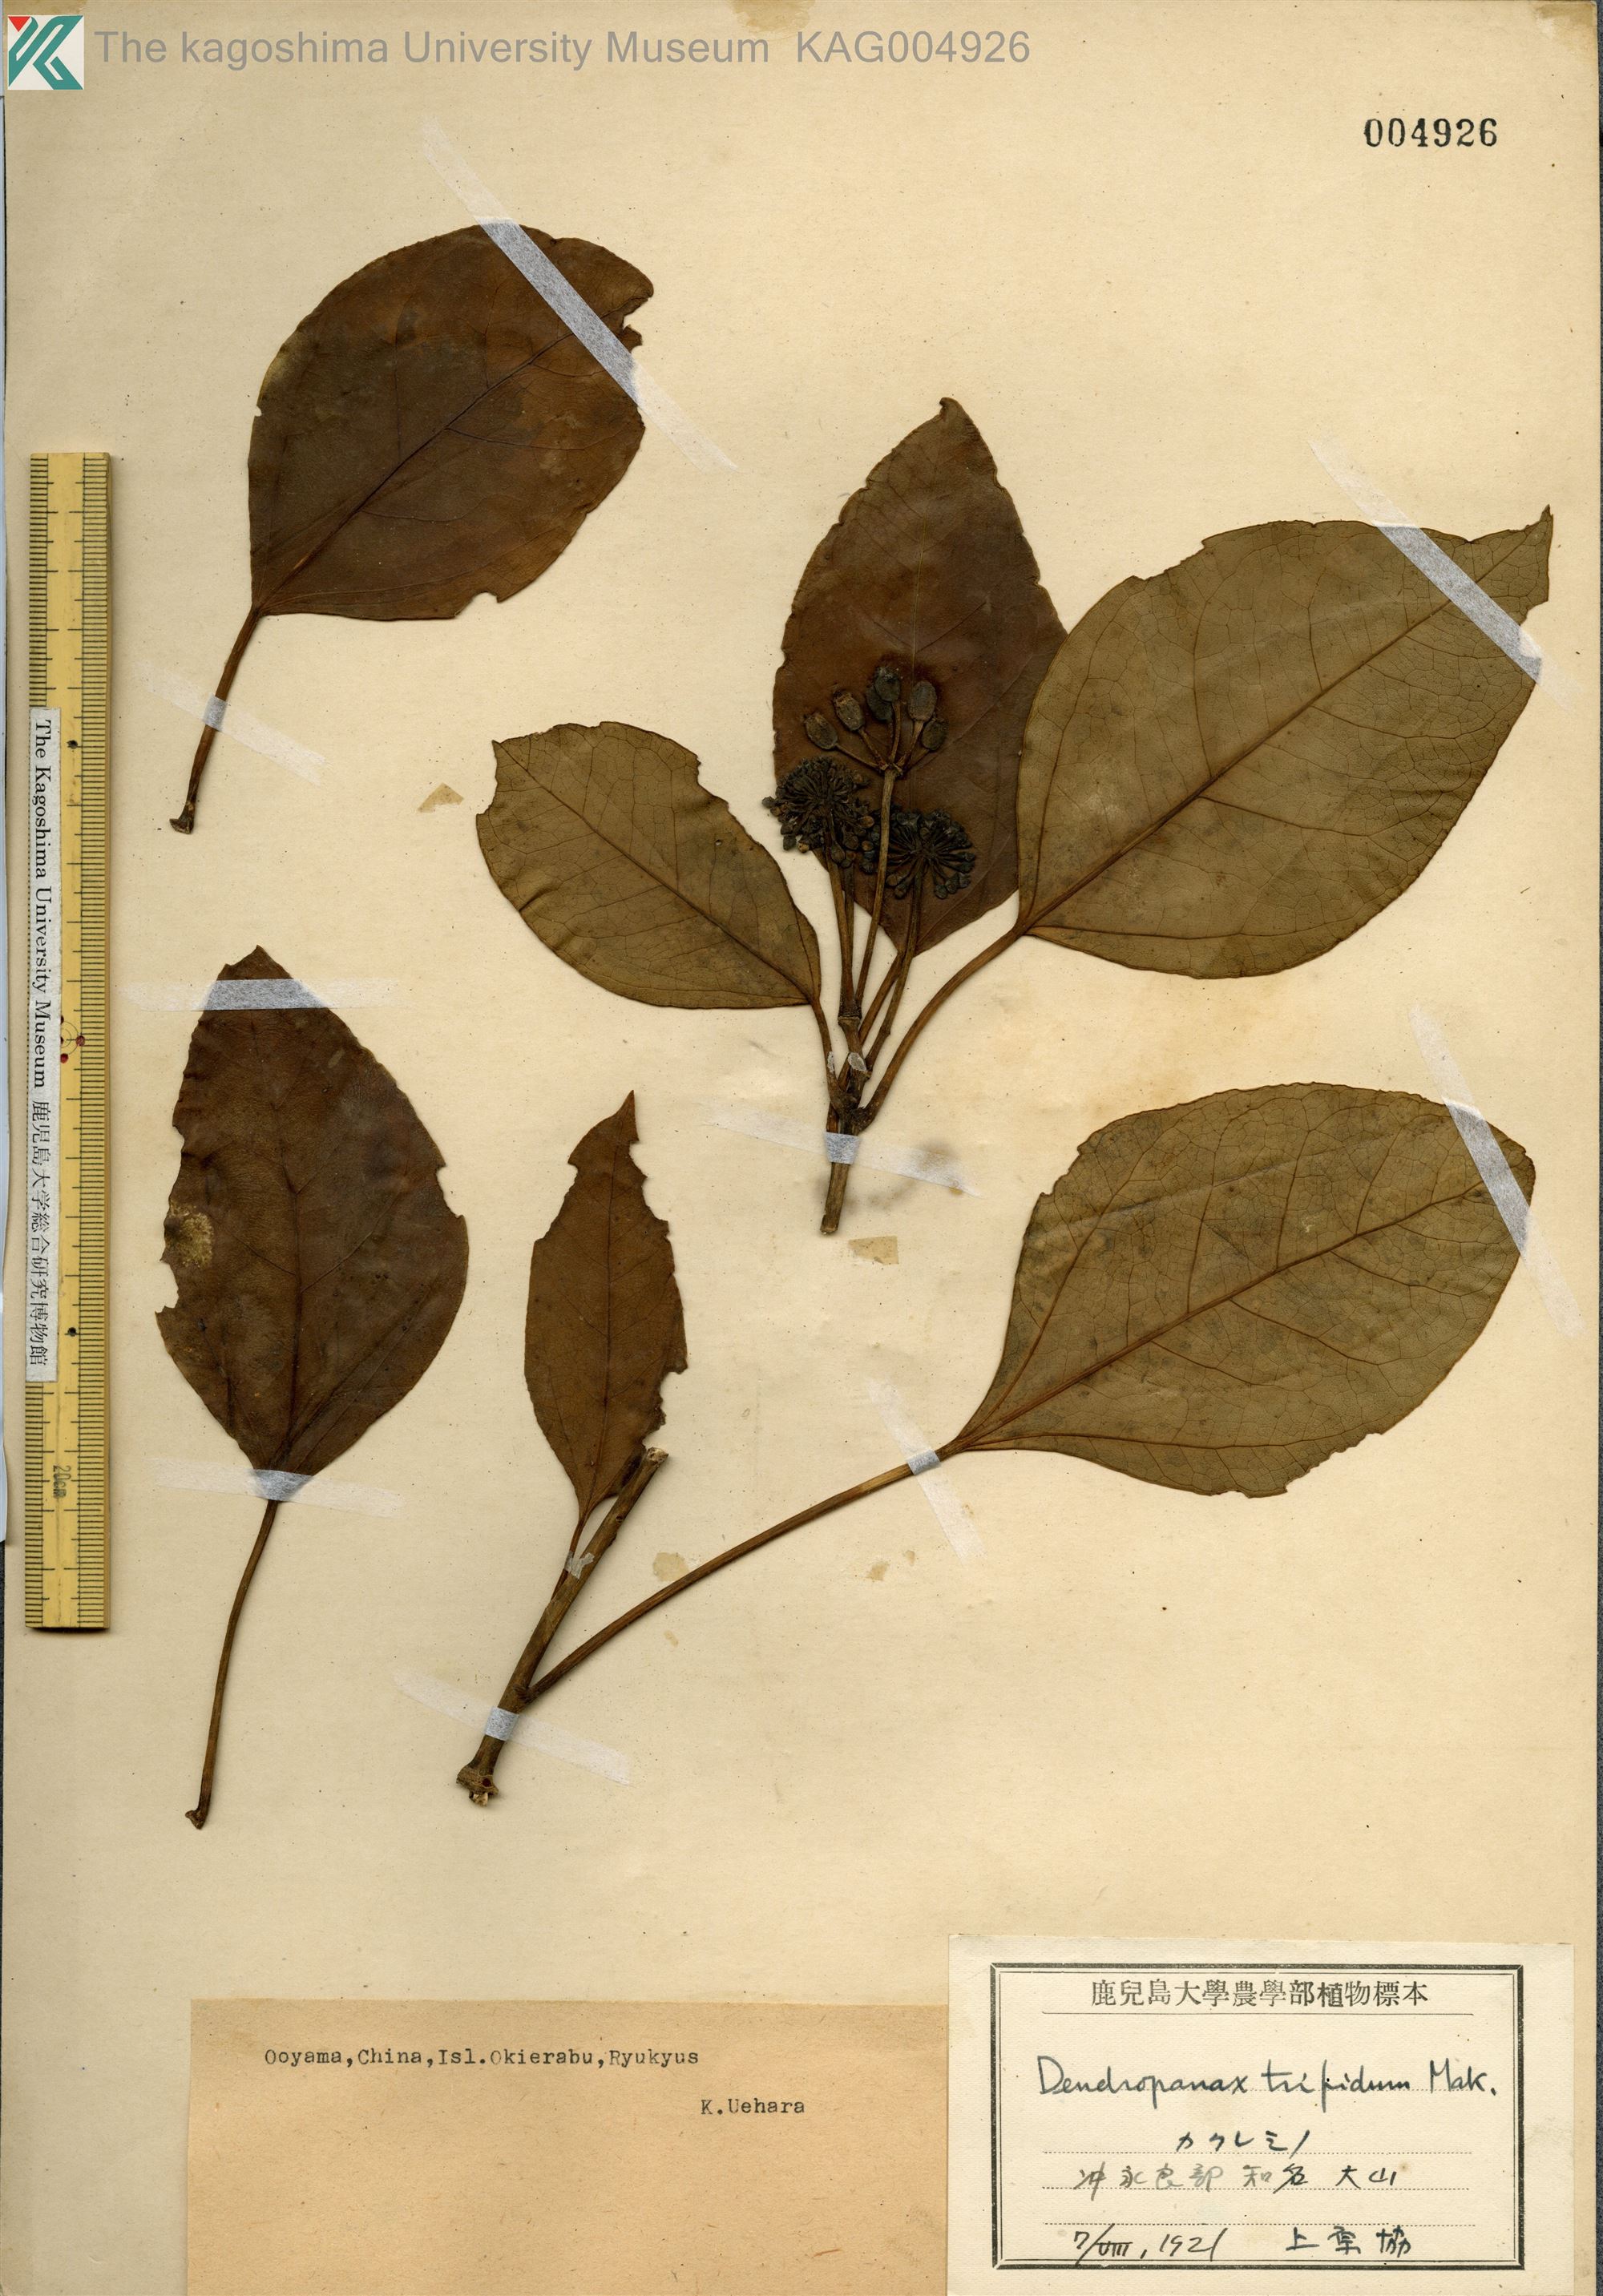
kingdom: Plantae
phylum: Tracheophyta
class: Magnoliopsida
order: Apiales
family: Araliaceae
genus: Dendropanax
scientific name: Dendropanax trifidus
